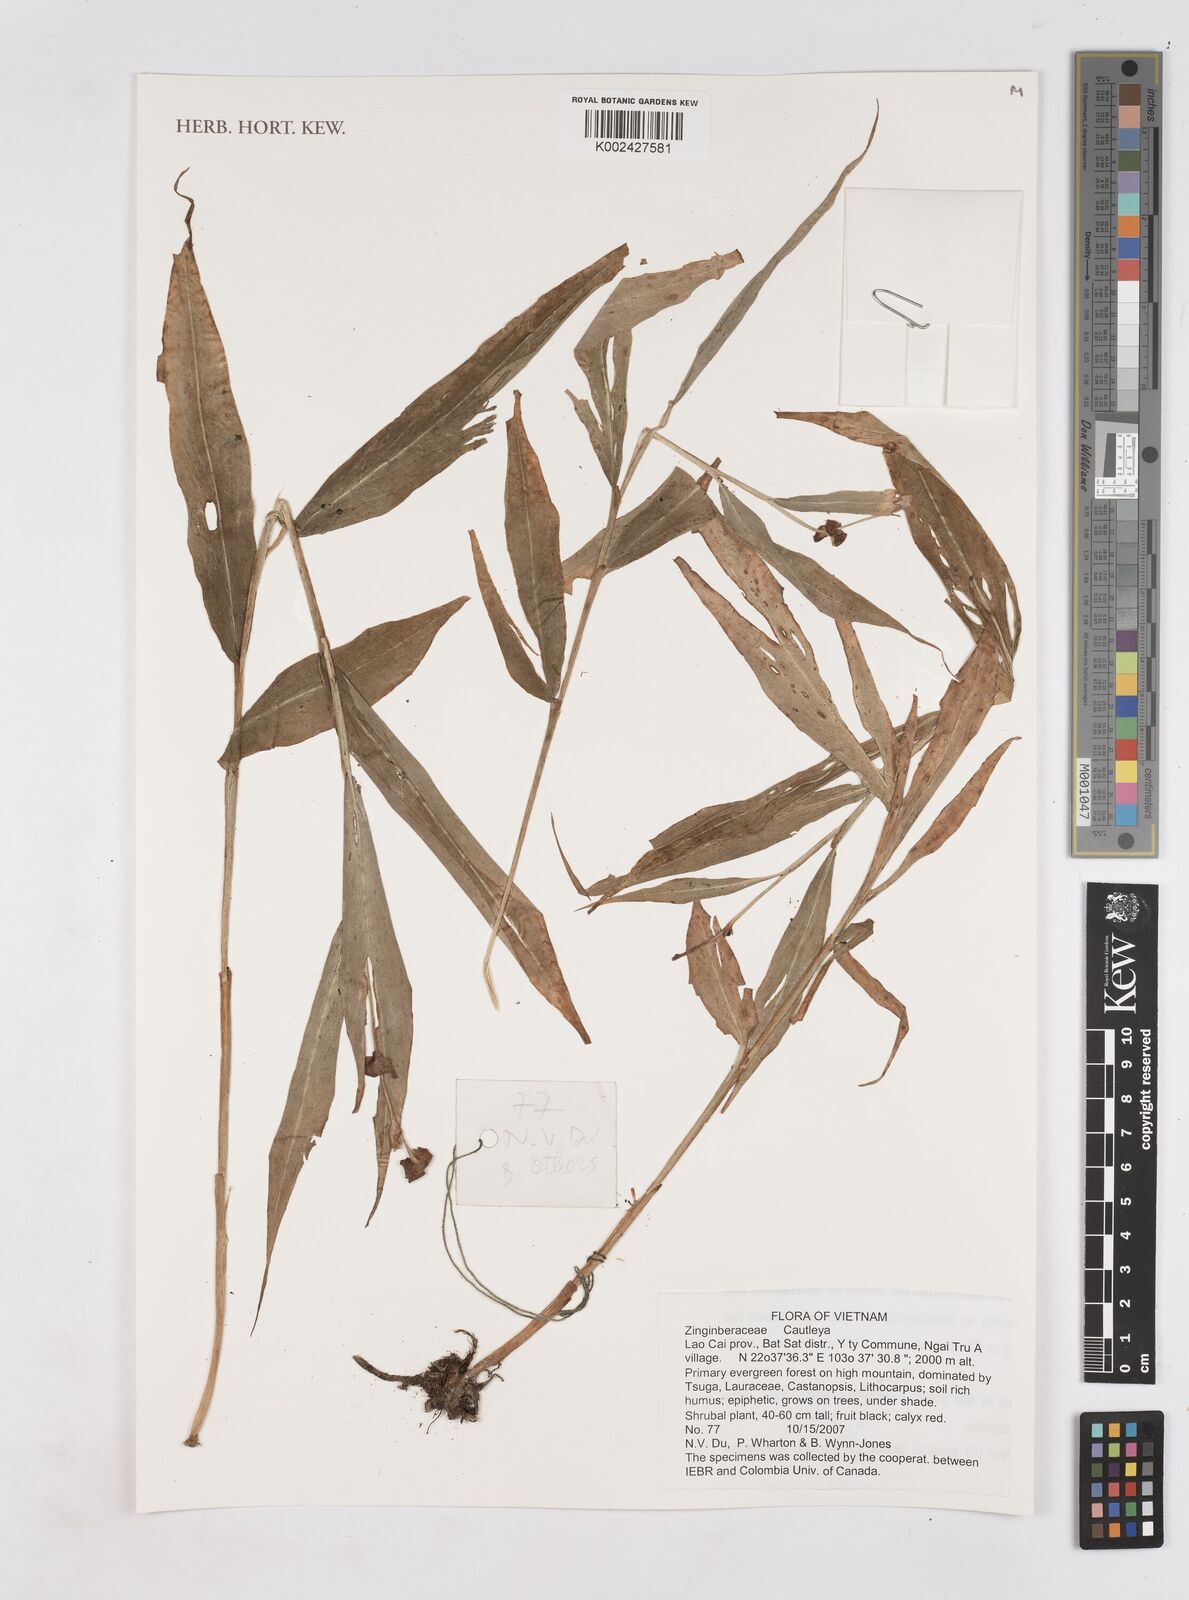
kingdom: Plantae
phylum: Tracheophyta
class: Liliopsida
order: Zingiberales
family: Zingiberaceae
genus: Cautleya
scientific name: Cautleya
